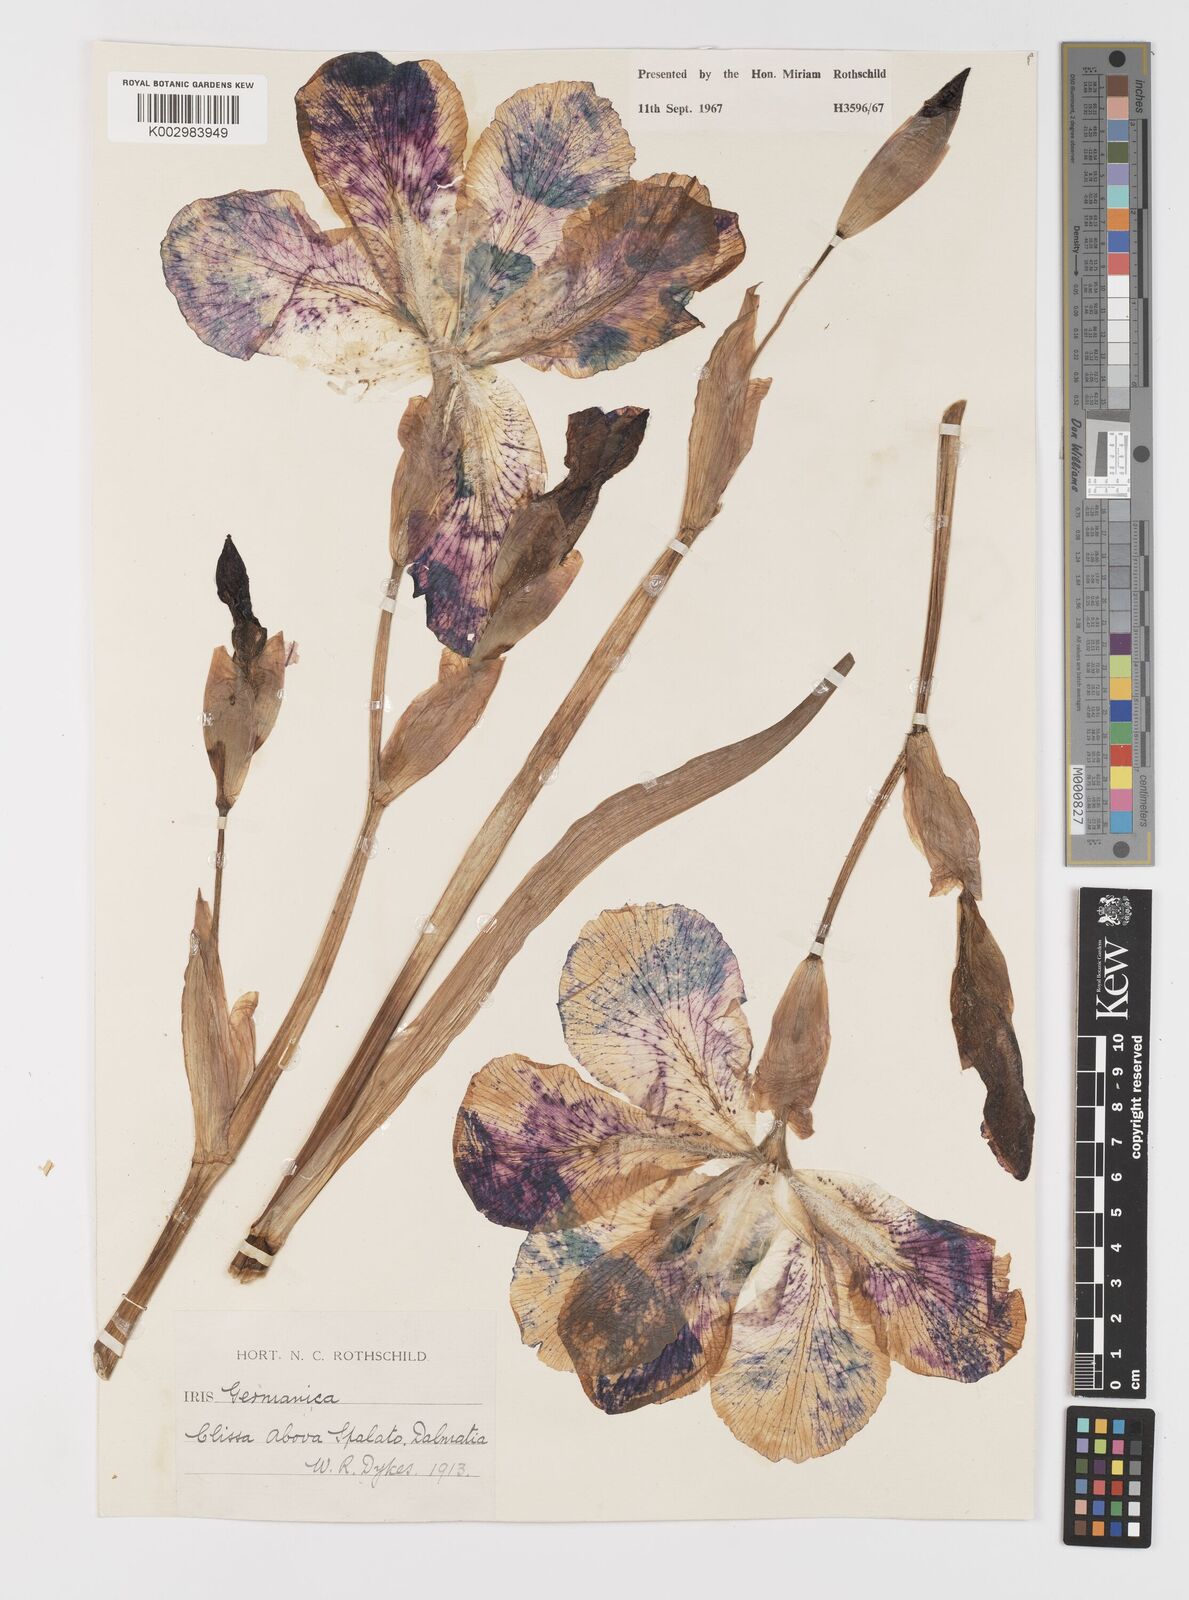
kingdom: Plantae
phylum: Tracheophyta
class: Liliopsida
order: Asparagales
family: Iridaceae
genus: Iris
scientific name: Iris germanica
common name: German iris
